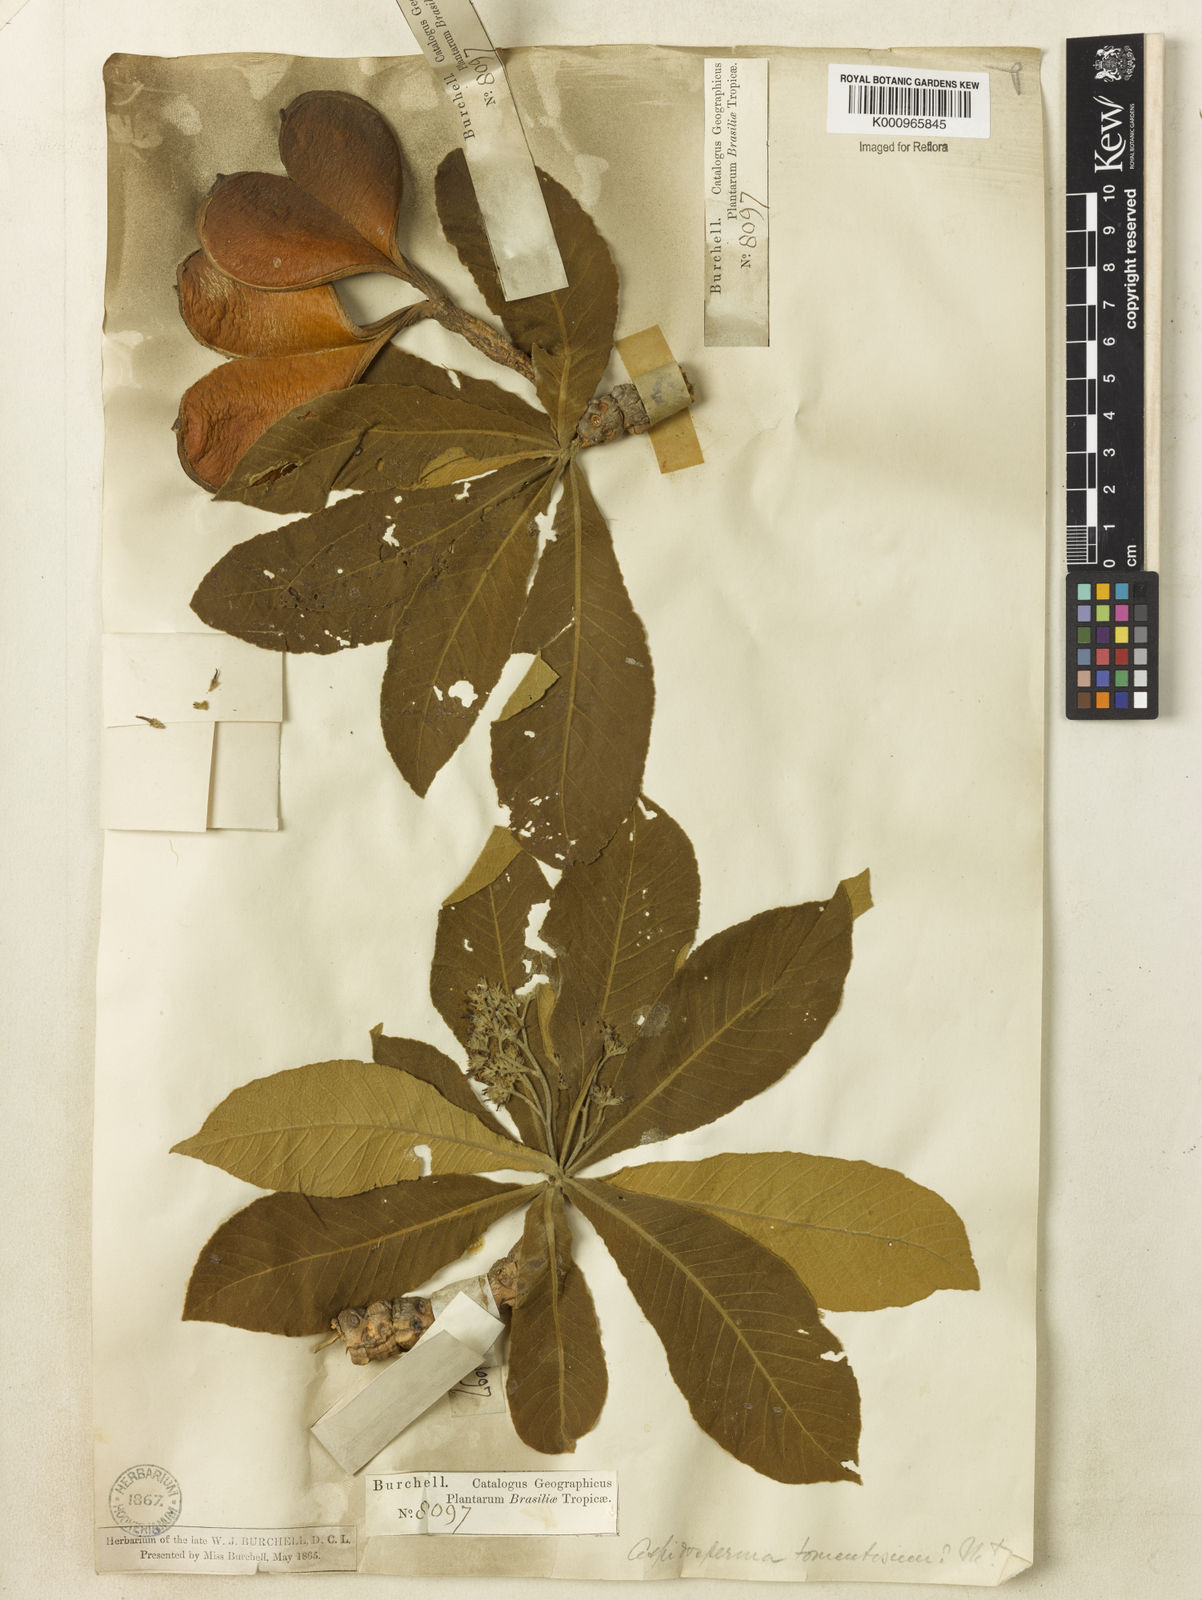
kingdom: Plantae
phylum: Tracheophyta
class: Magnoliopsida
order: Gentianales
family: Apocynaceae
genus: Aspidosperma
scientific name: Aspidosperma tomentosum
